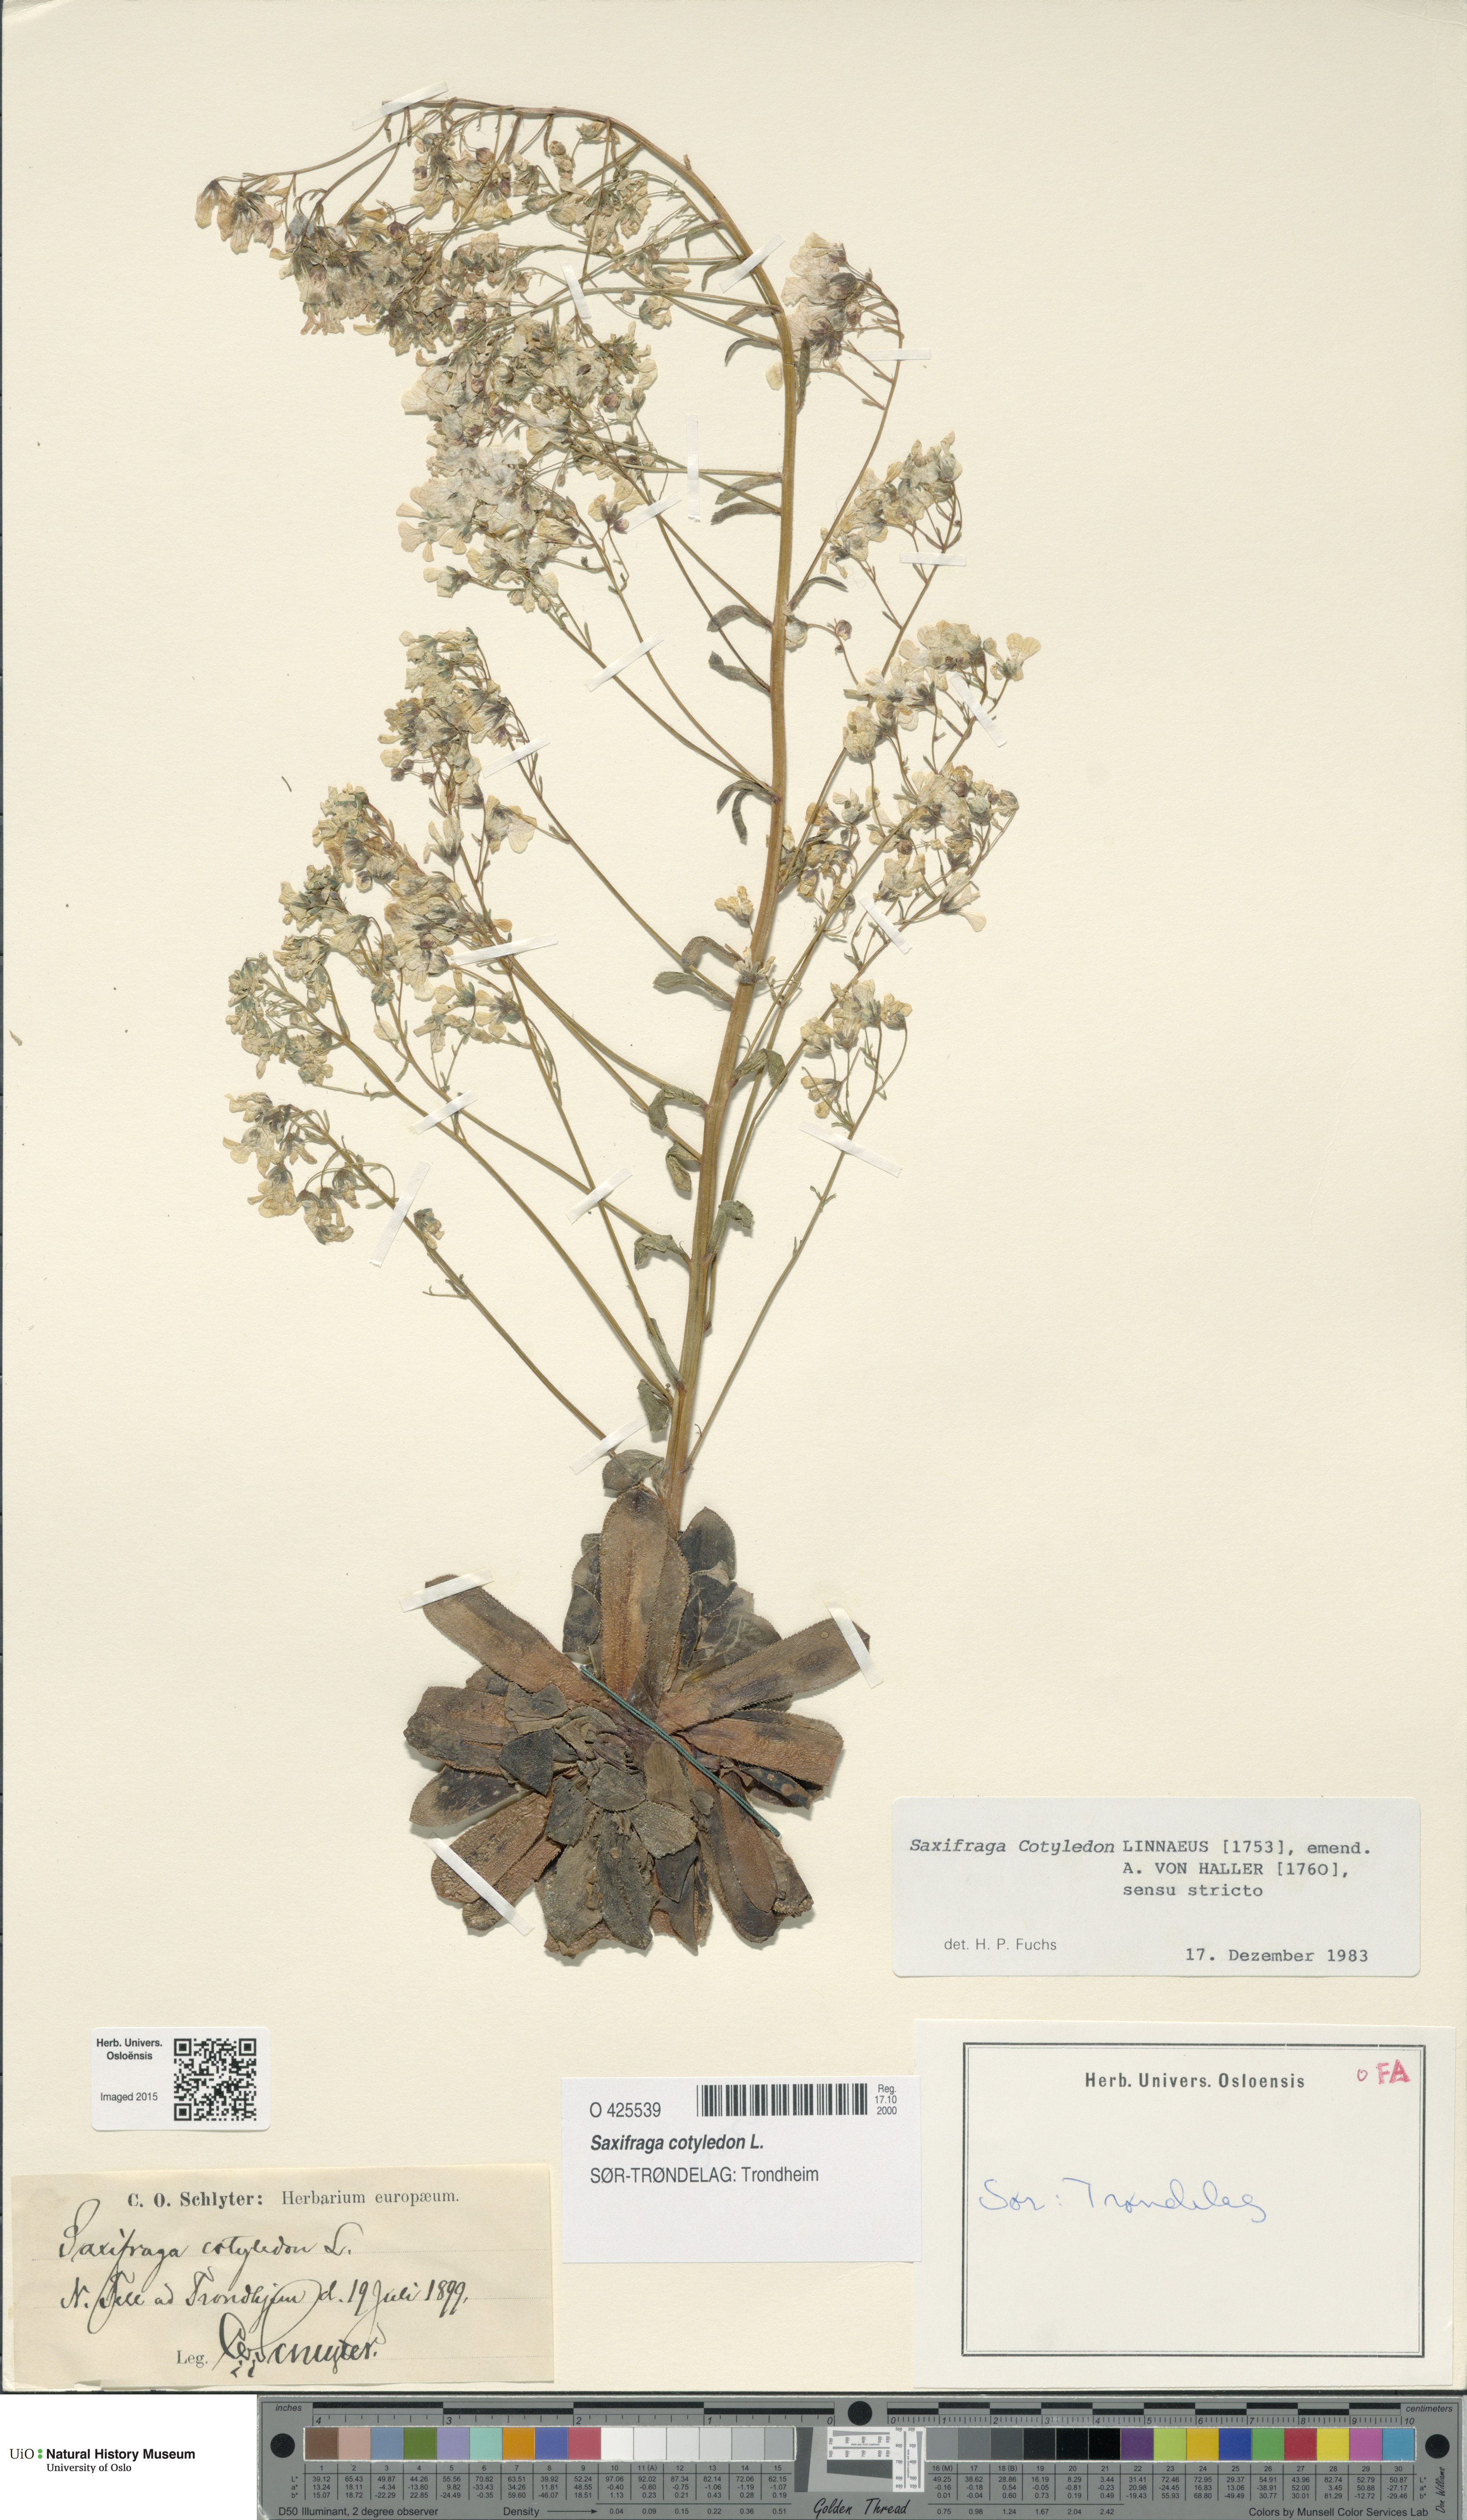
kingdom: Plantae
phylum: Tracheophyta
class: Magnoliopsida
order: Saxifragales
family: Saxifragaceae
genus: Saxifraga
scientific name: Saxifraga cotyledon
